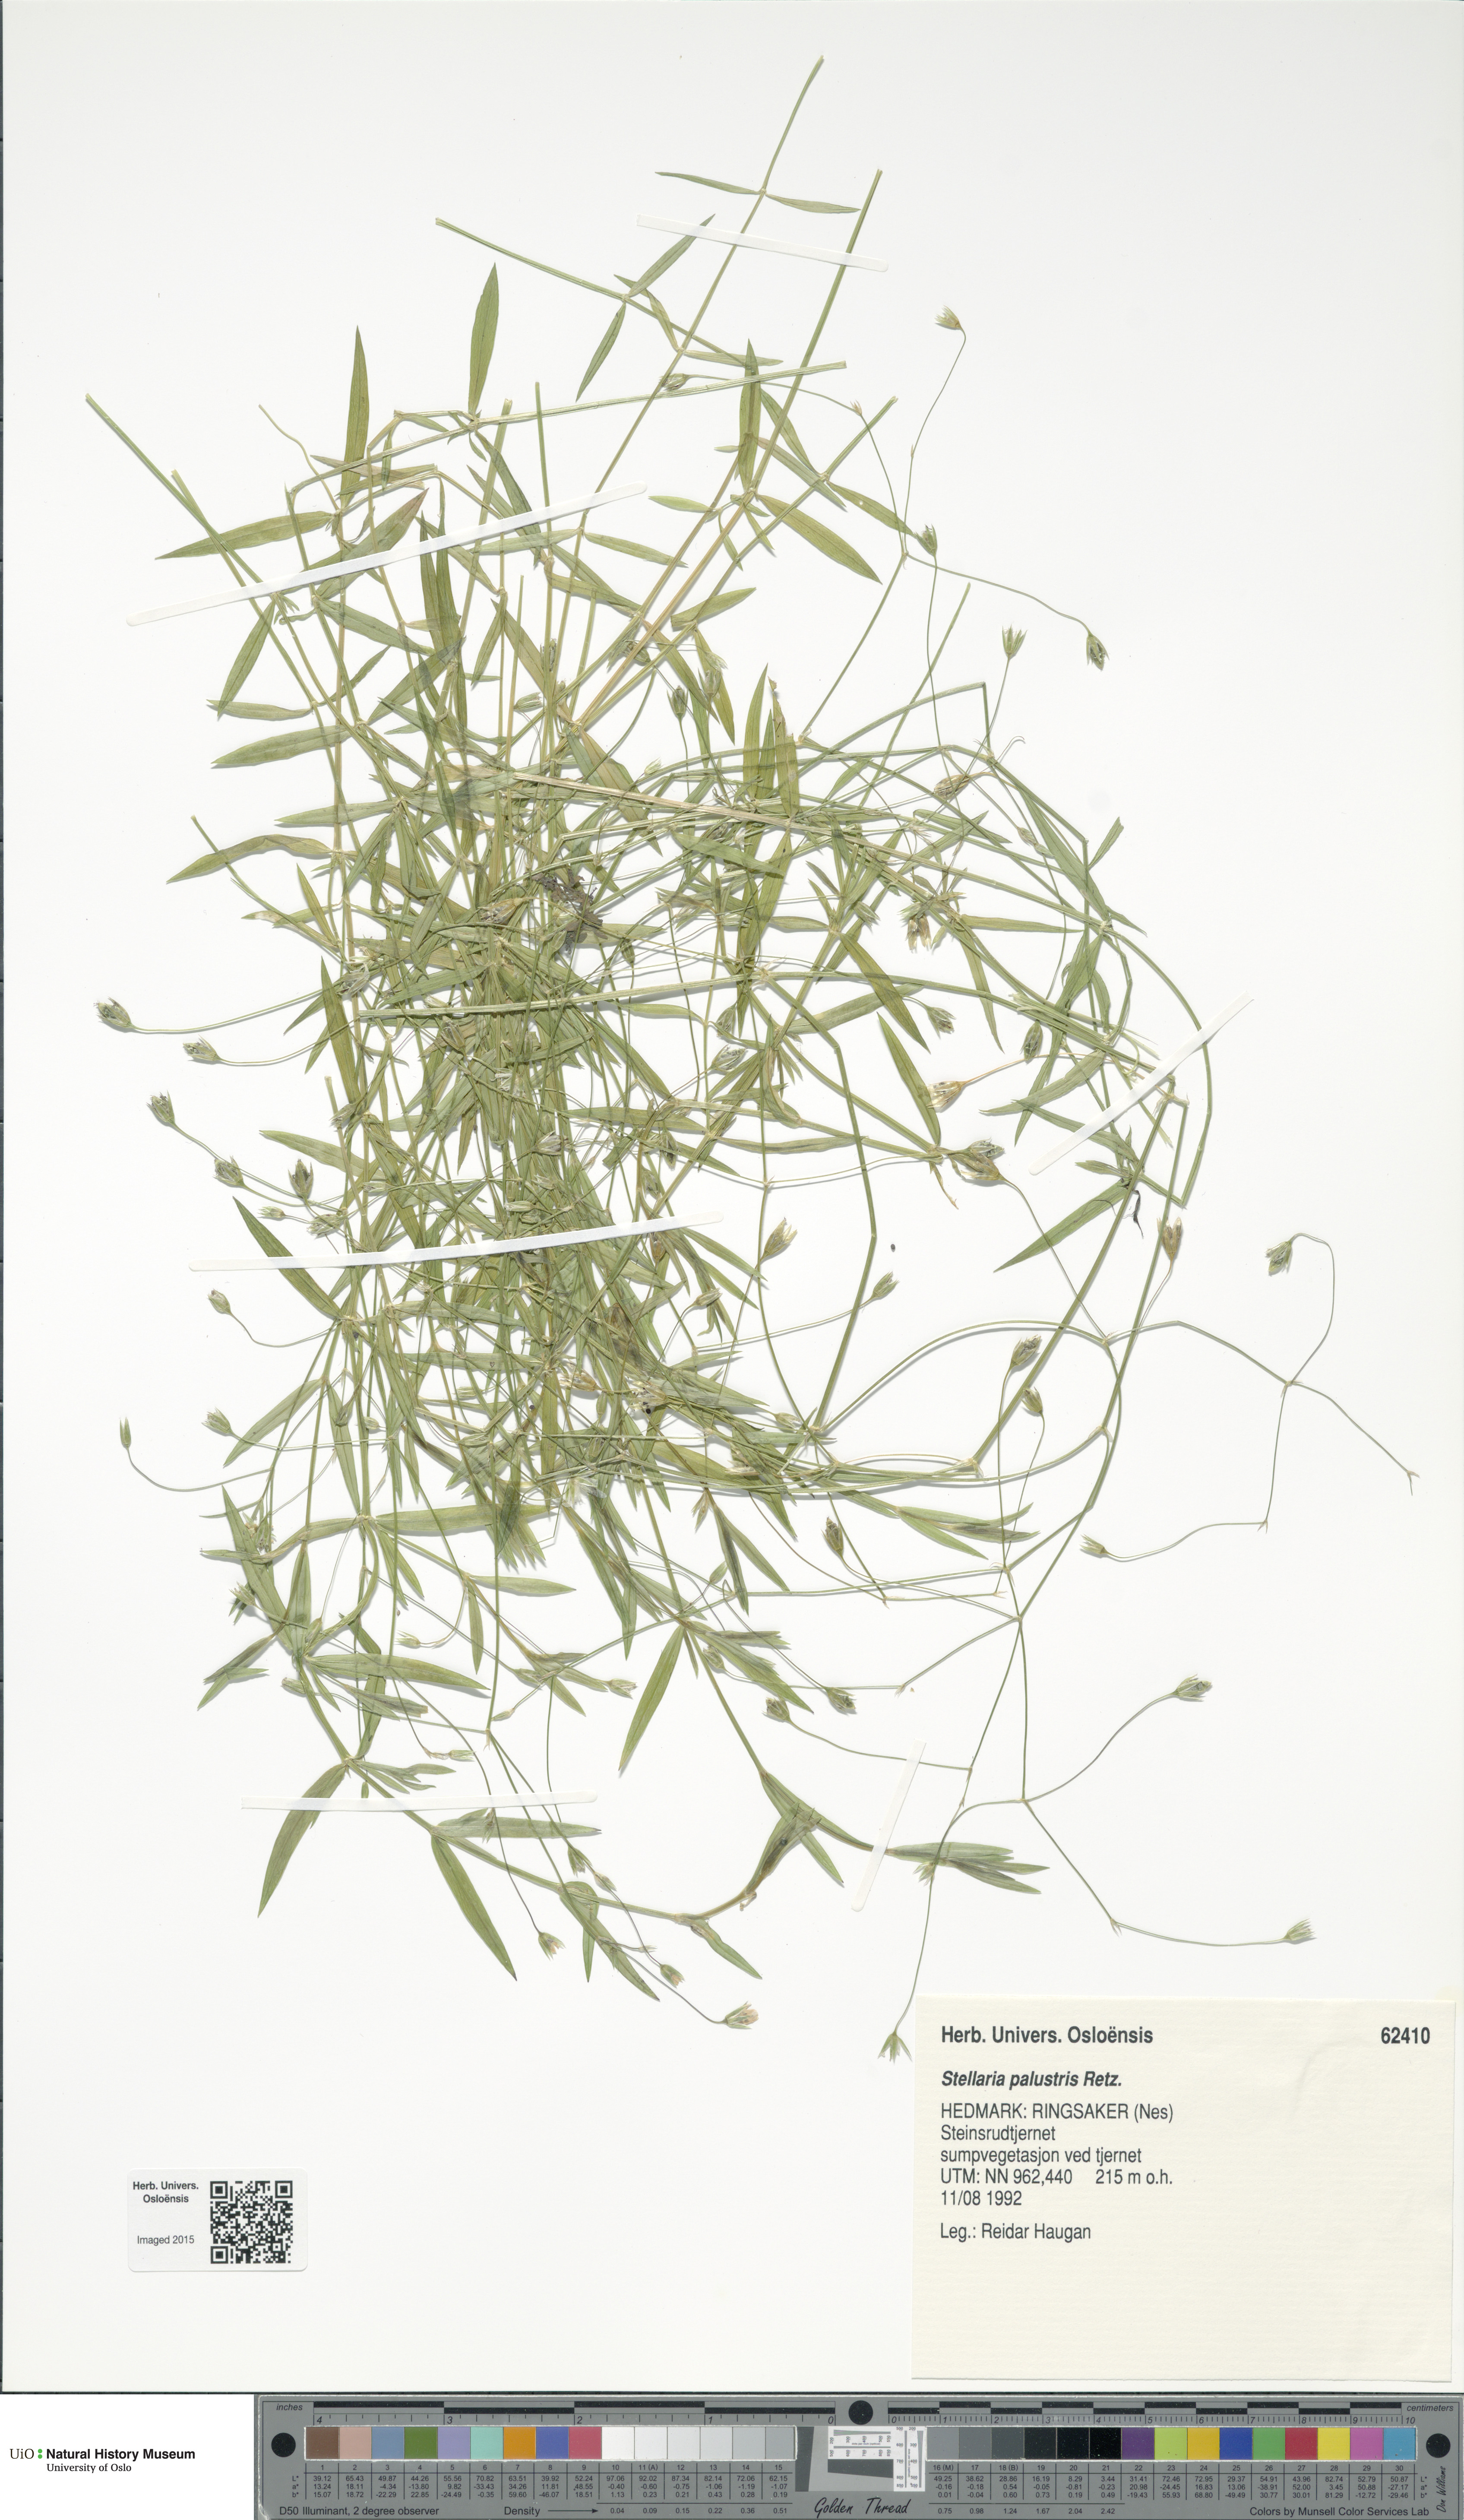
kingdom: Plantae
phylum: Tracheophyta
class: Magnoliopsida
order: Caryophyllales
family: Caryophyllaceae
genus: Stellaria
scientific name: Stellaria palustris
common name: Marsh stitchwort
